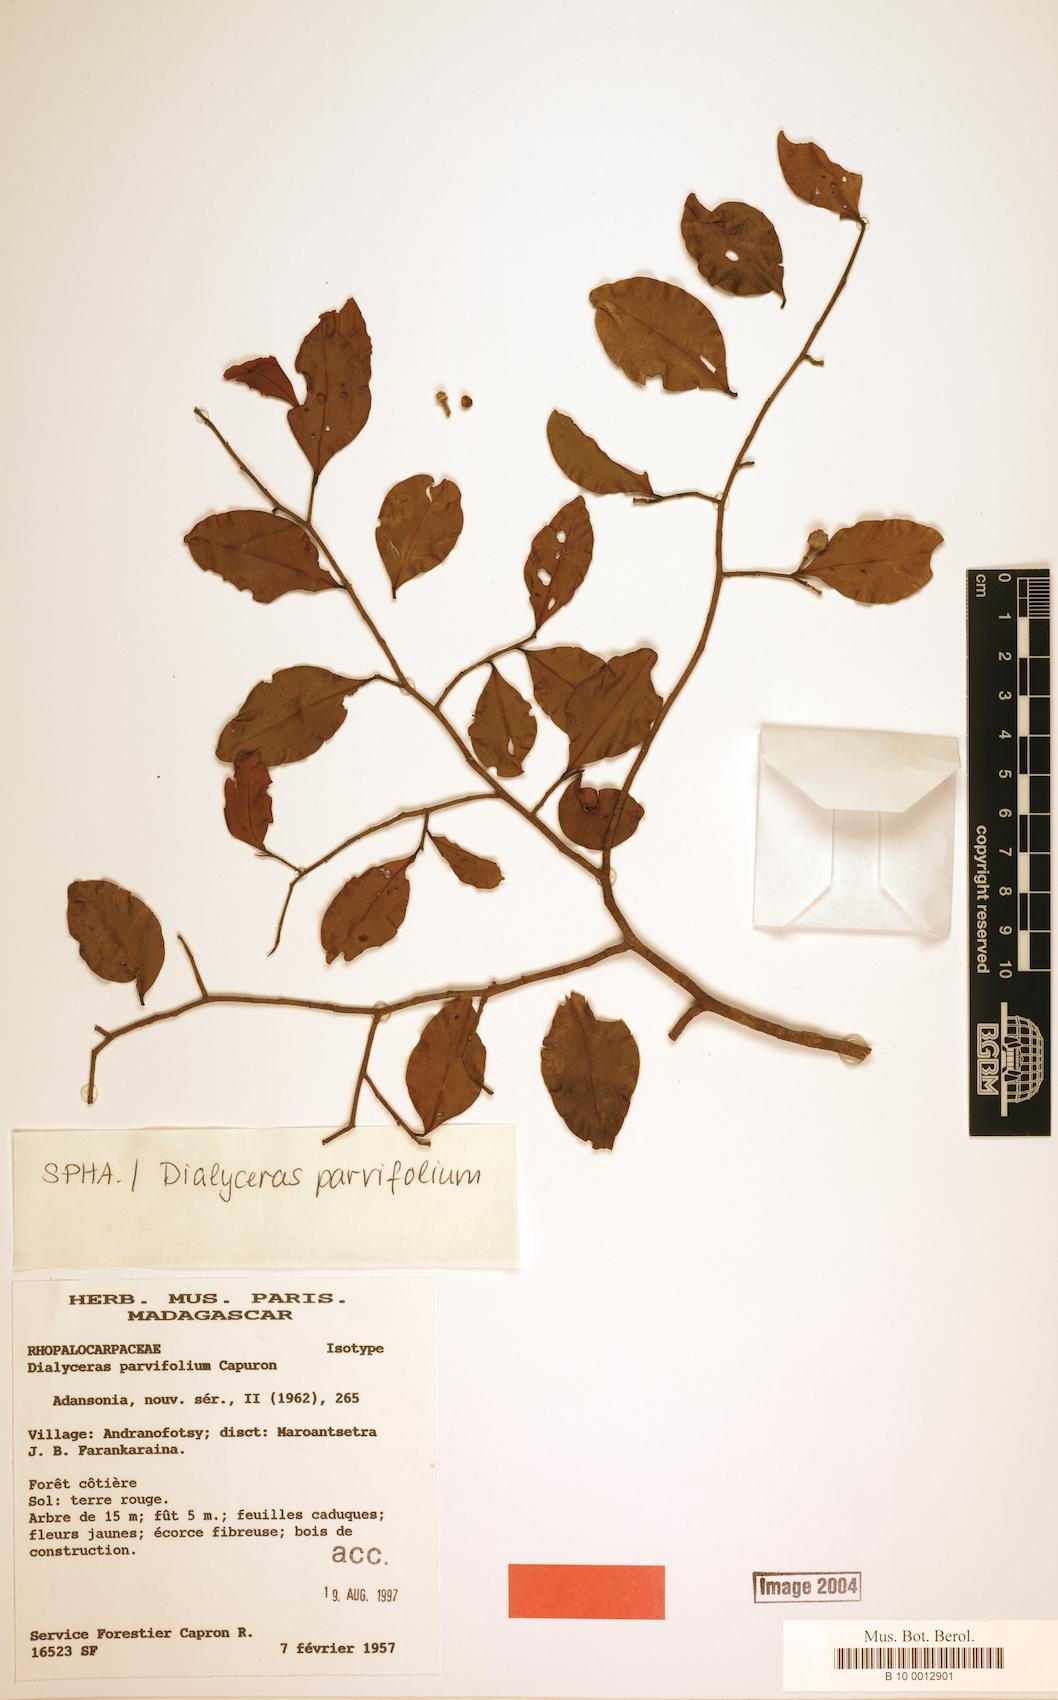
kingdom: Plantae
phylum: Tracheophyta
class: Magnoliopsida
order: Malvales
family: Sphaerosepalaceae
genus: Dialyceras
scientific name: Dialyceras parvifolium
